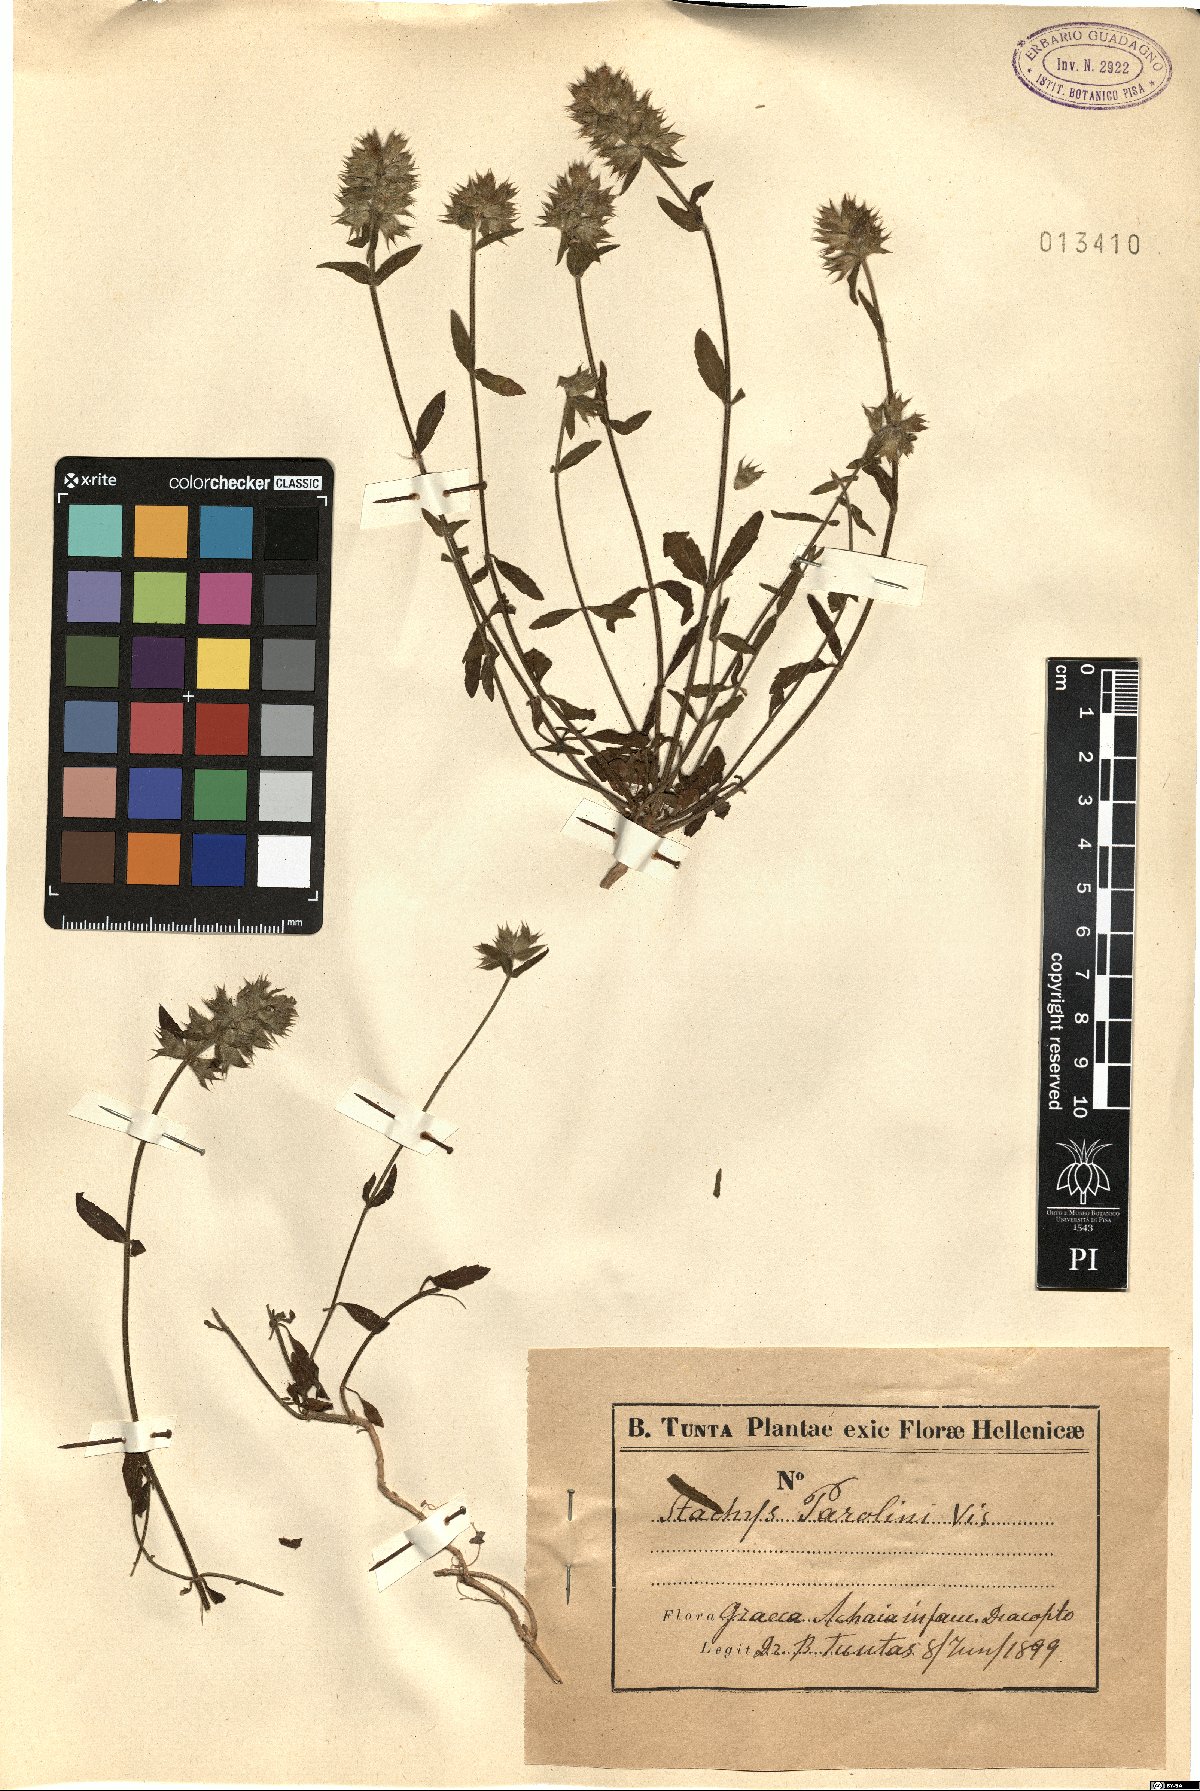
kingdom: Plantae
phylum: Tracheophyta
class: Magnoliopsida
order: Lamiales
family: Lamiaceae
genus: Stachys
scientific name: Stachys parolinii
